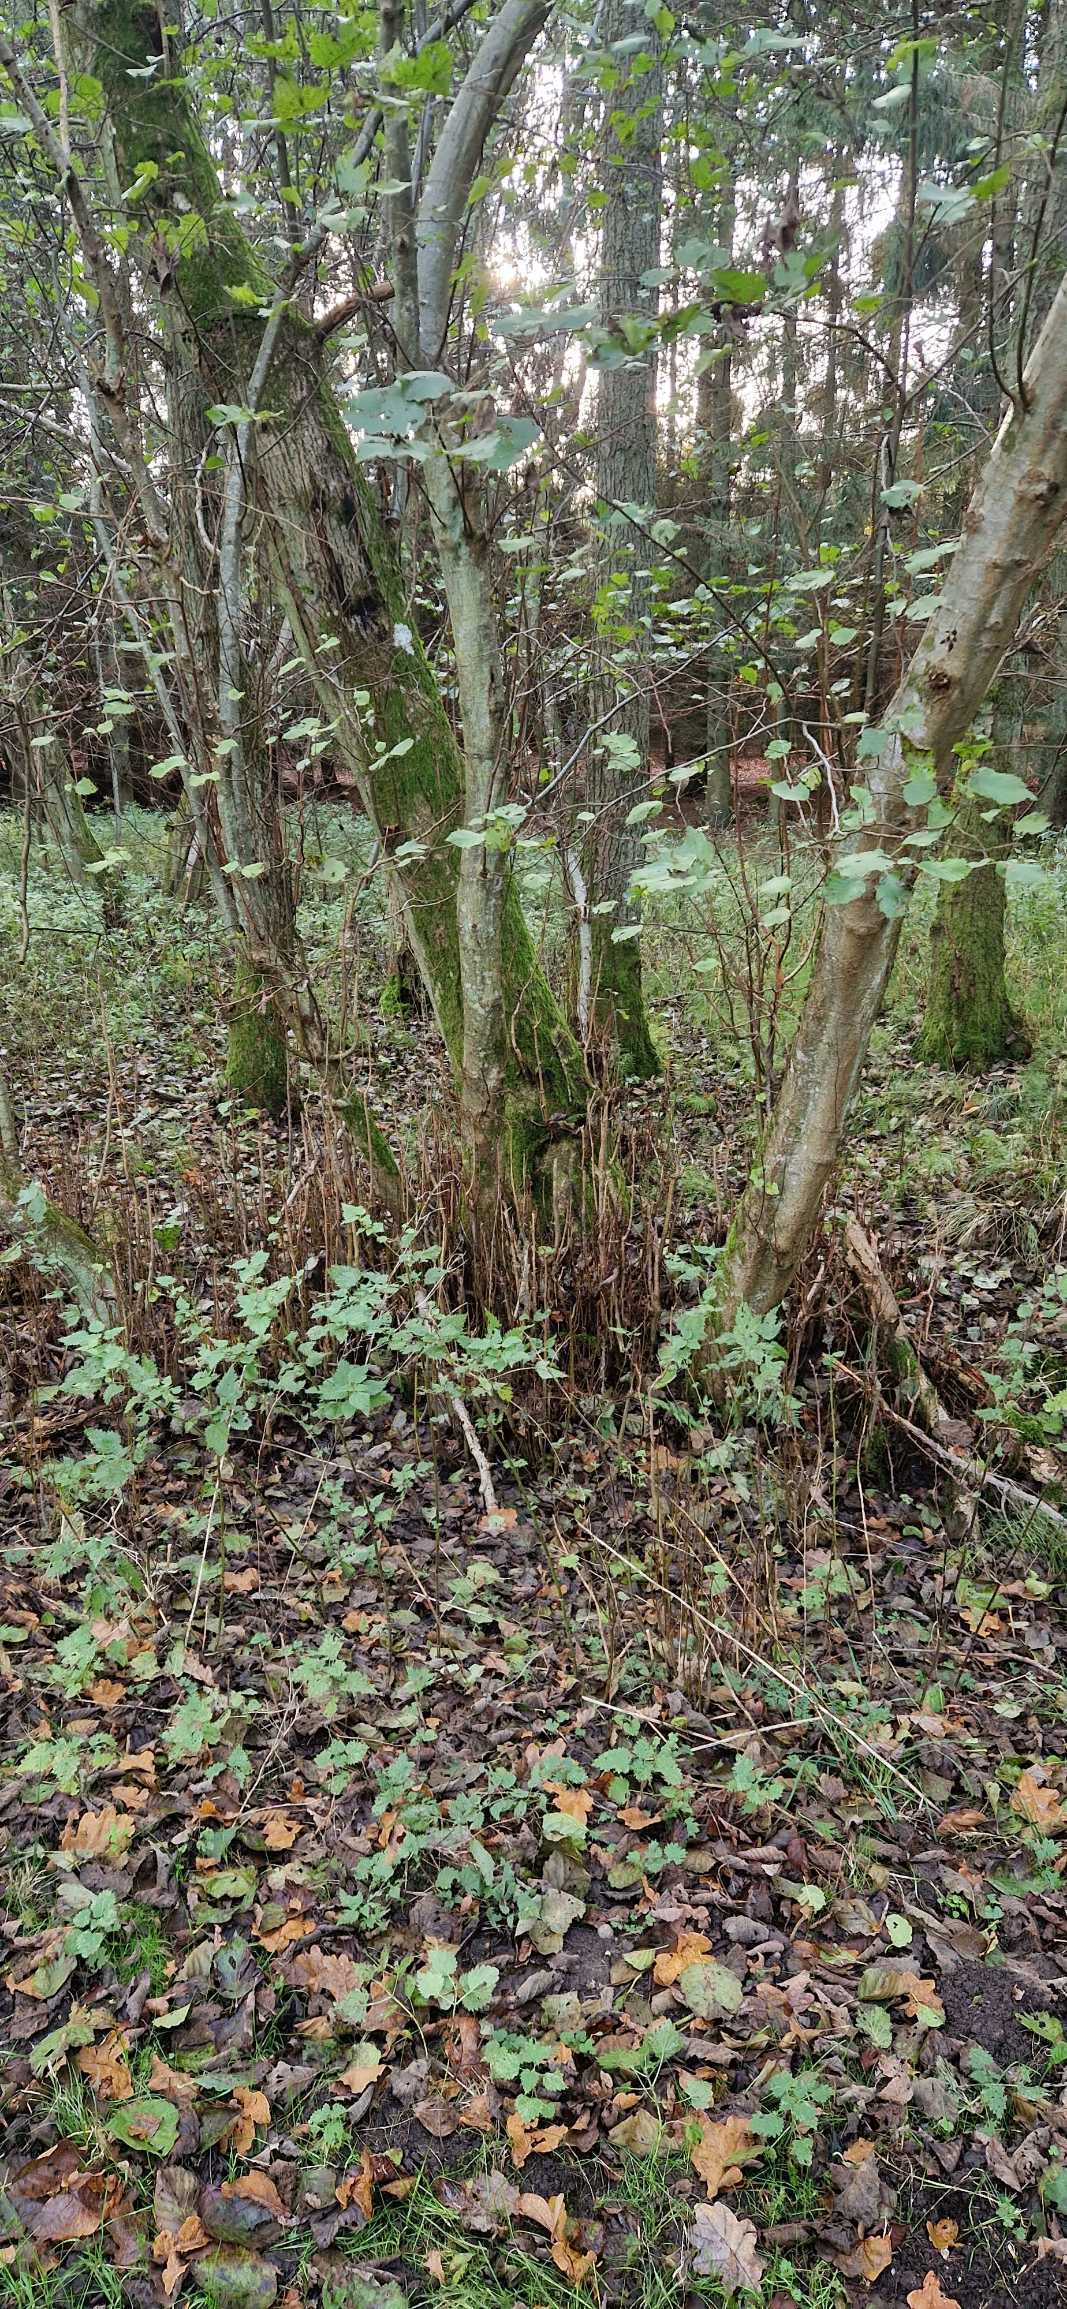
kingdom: Plantae
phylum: Tracheophyta
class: Magnoliopsida
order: Fagales
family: Betulaceae
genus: Alnus
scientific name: Alnus incana
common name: Grå-el/hvid-el
